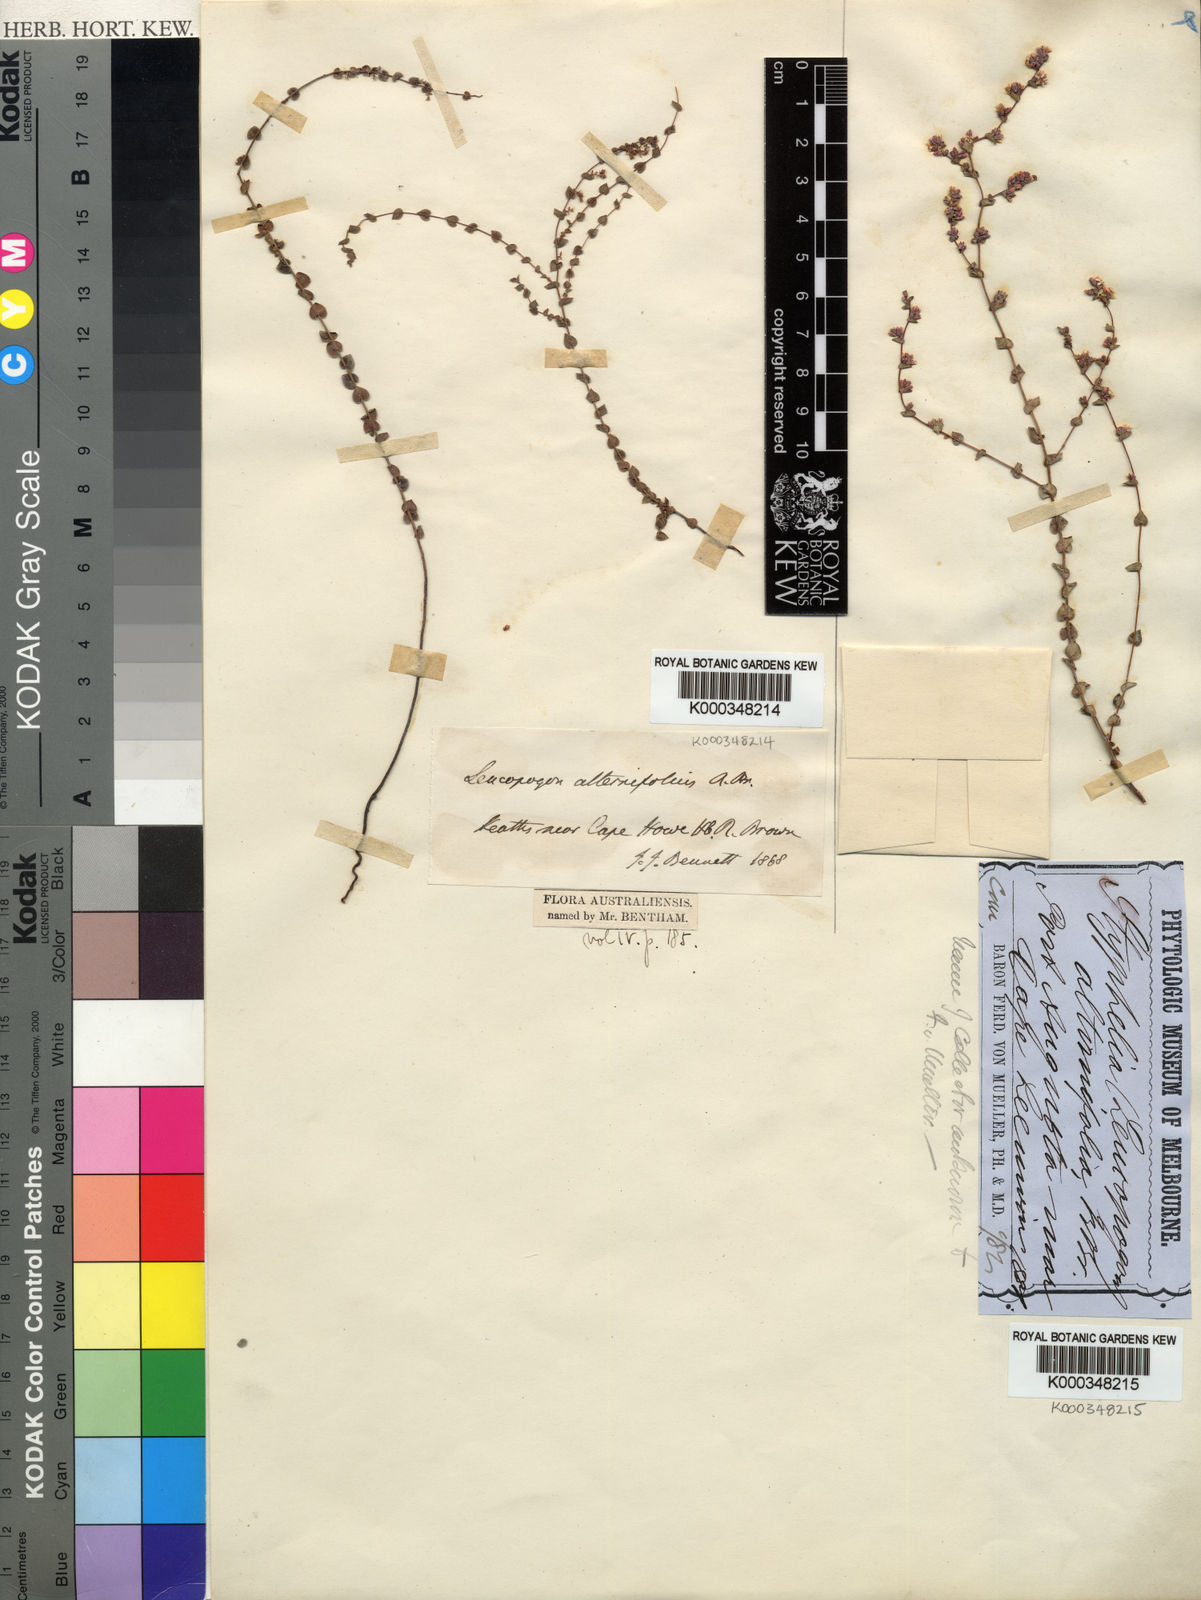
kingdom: Plantae
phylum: Tracheophyta
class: Magnoliopsida
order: Ericales
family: Ericaceae
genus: Leucopogon
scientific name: Leucopogon alternifolius
